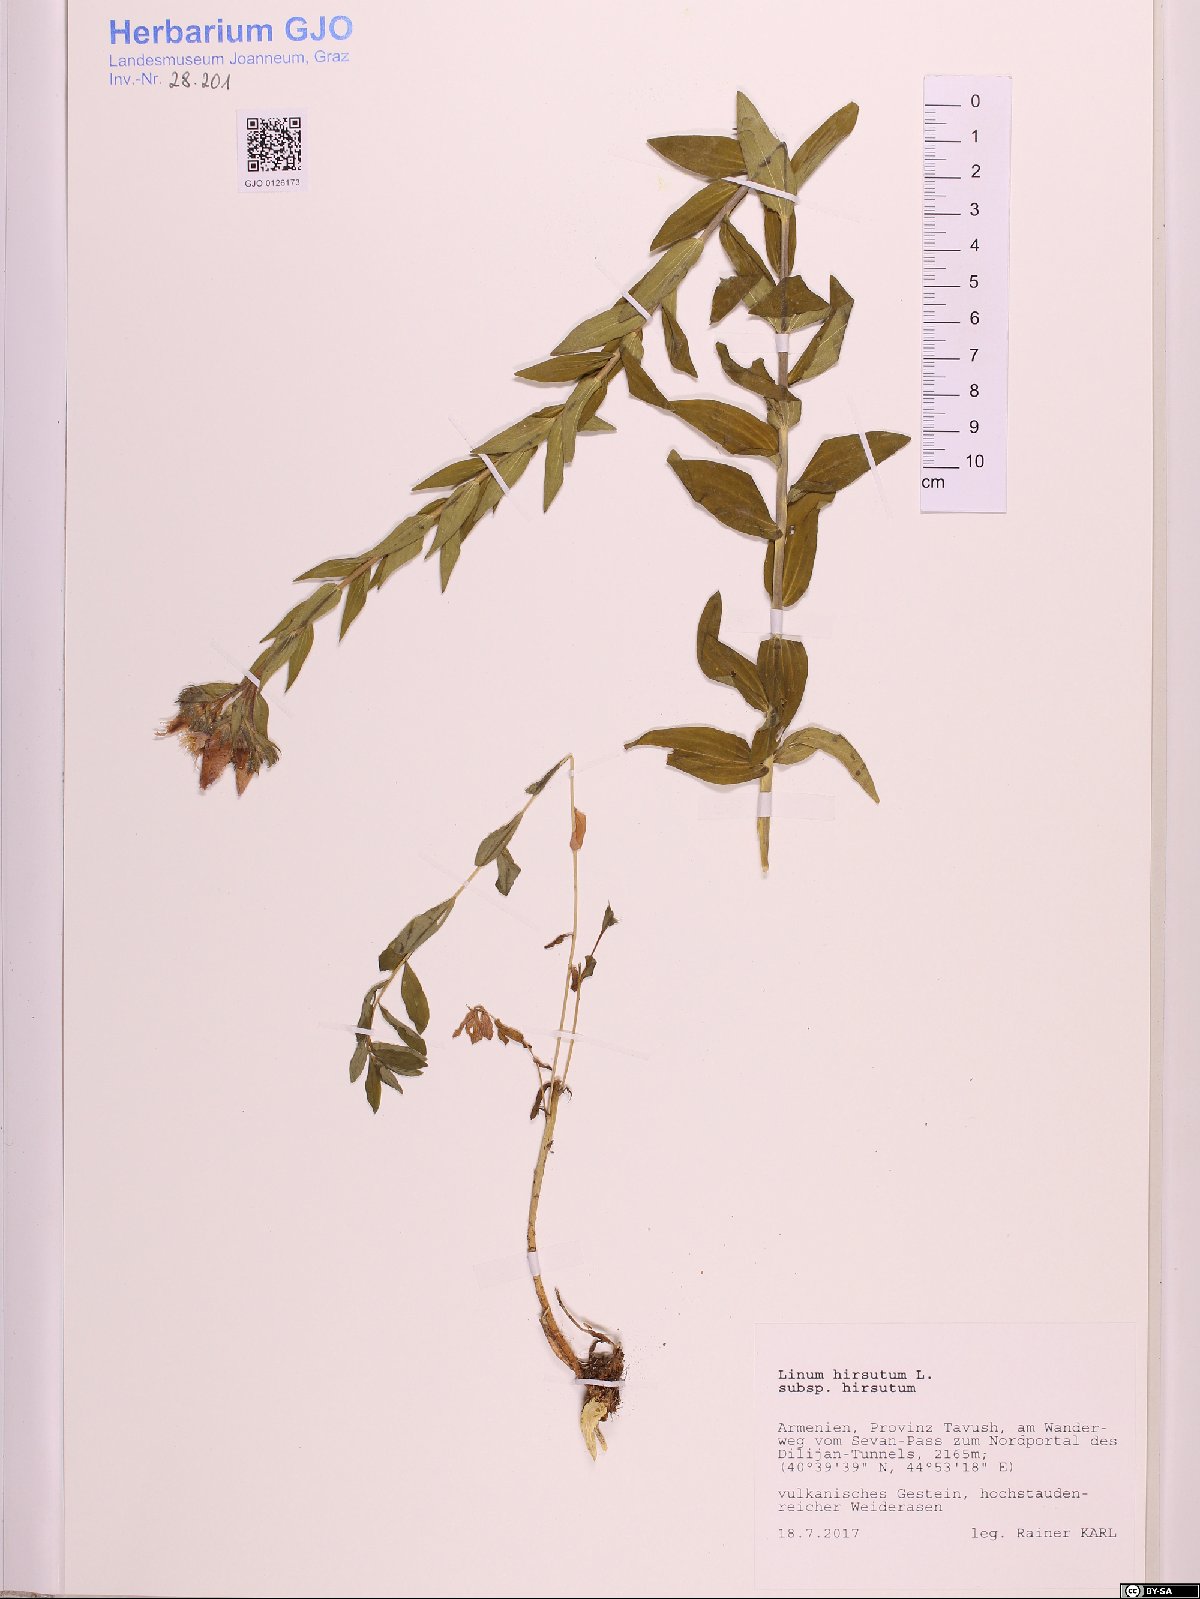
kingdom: Plantae
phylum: Tracheophyta
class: Magnoliopsida
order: Malpighiales
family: Linaceae
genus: Linum
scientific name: Linum hirsutum
